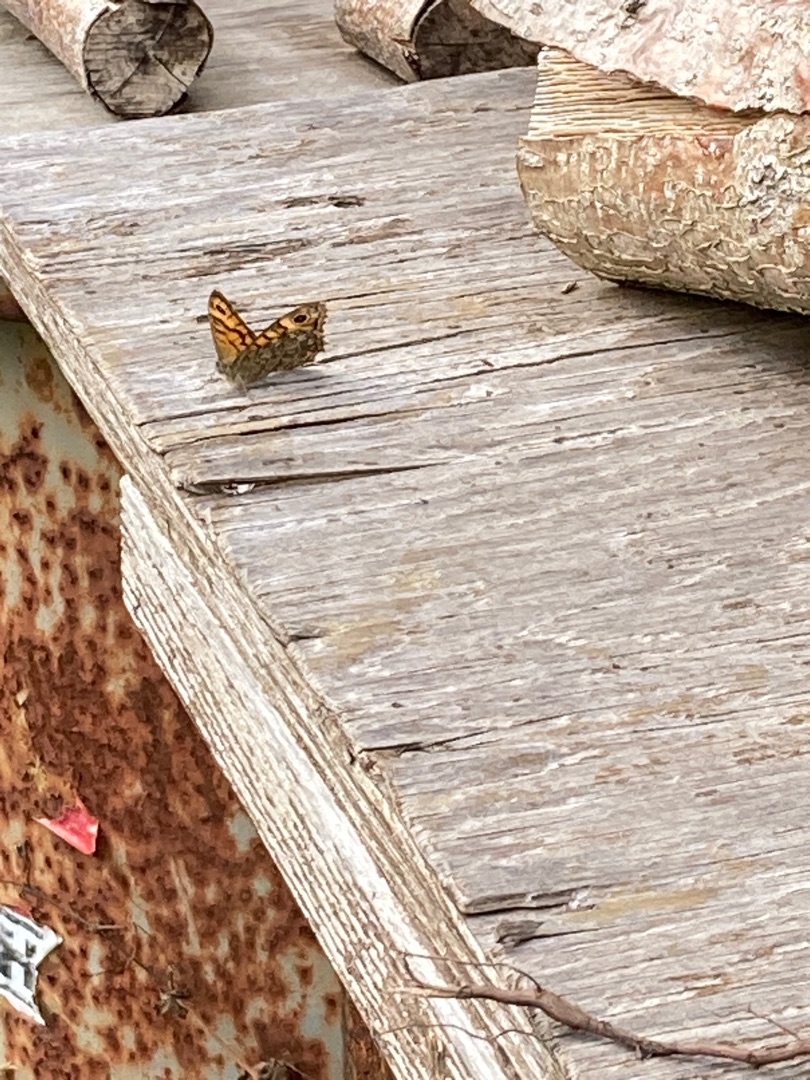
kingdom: Animalia
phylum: Arthropoda
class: Insecta
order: Lepidoptera
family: Nymphalidae
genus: Pararge
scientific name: Pararge Lasiommata megera
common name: Vejrandøje
